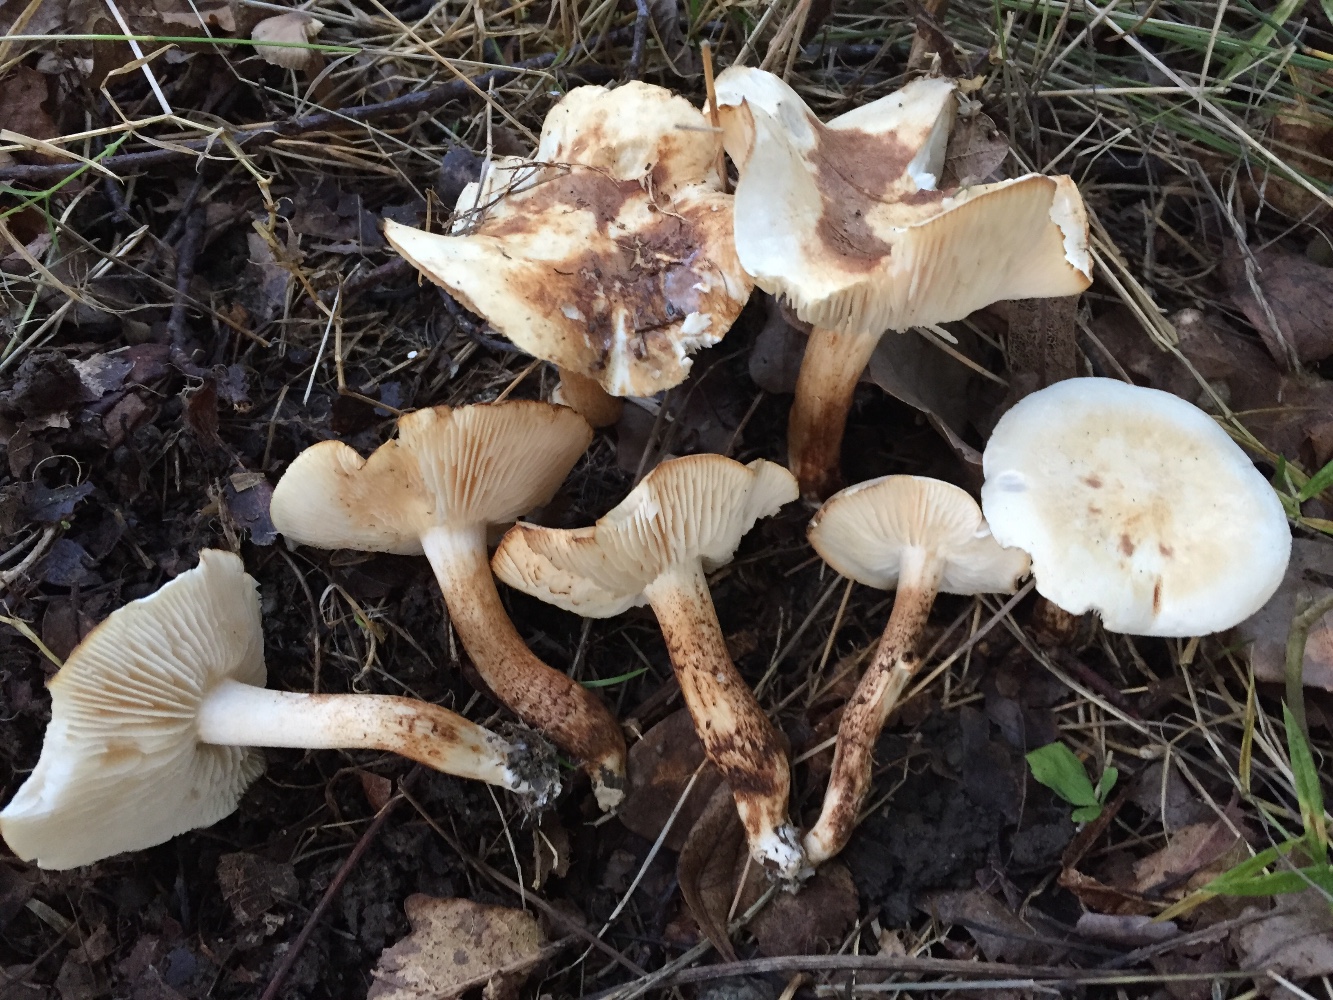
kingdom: Fungi
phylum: Basidiomycota
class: Agaricomycetes
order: Agaricales
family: Agaricaceae
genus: Chamaemyces
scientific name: Chamaemyces fracidus
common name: dråbehat
